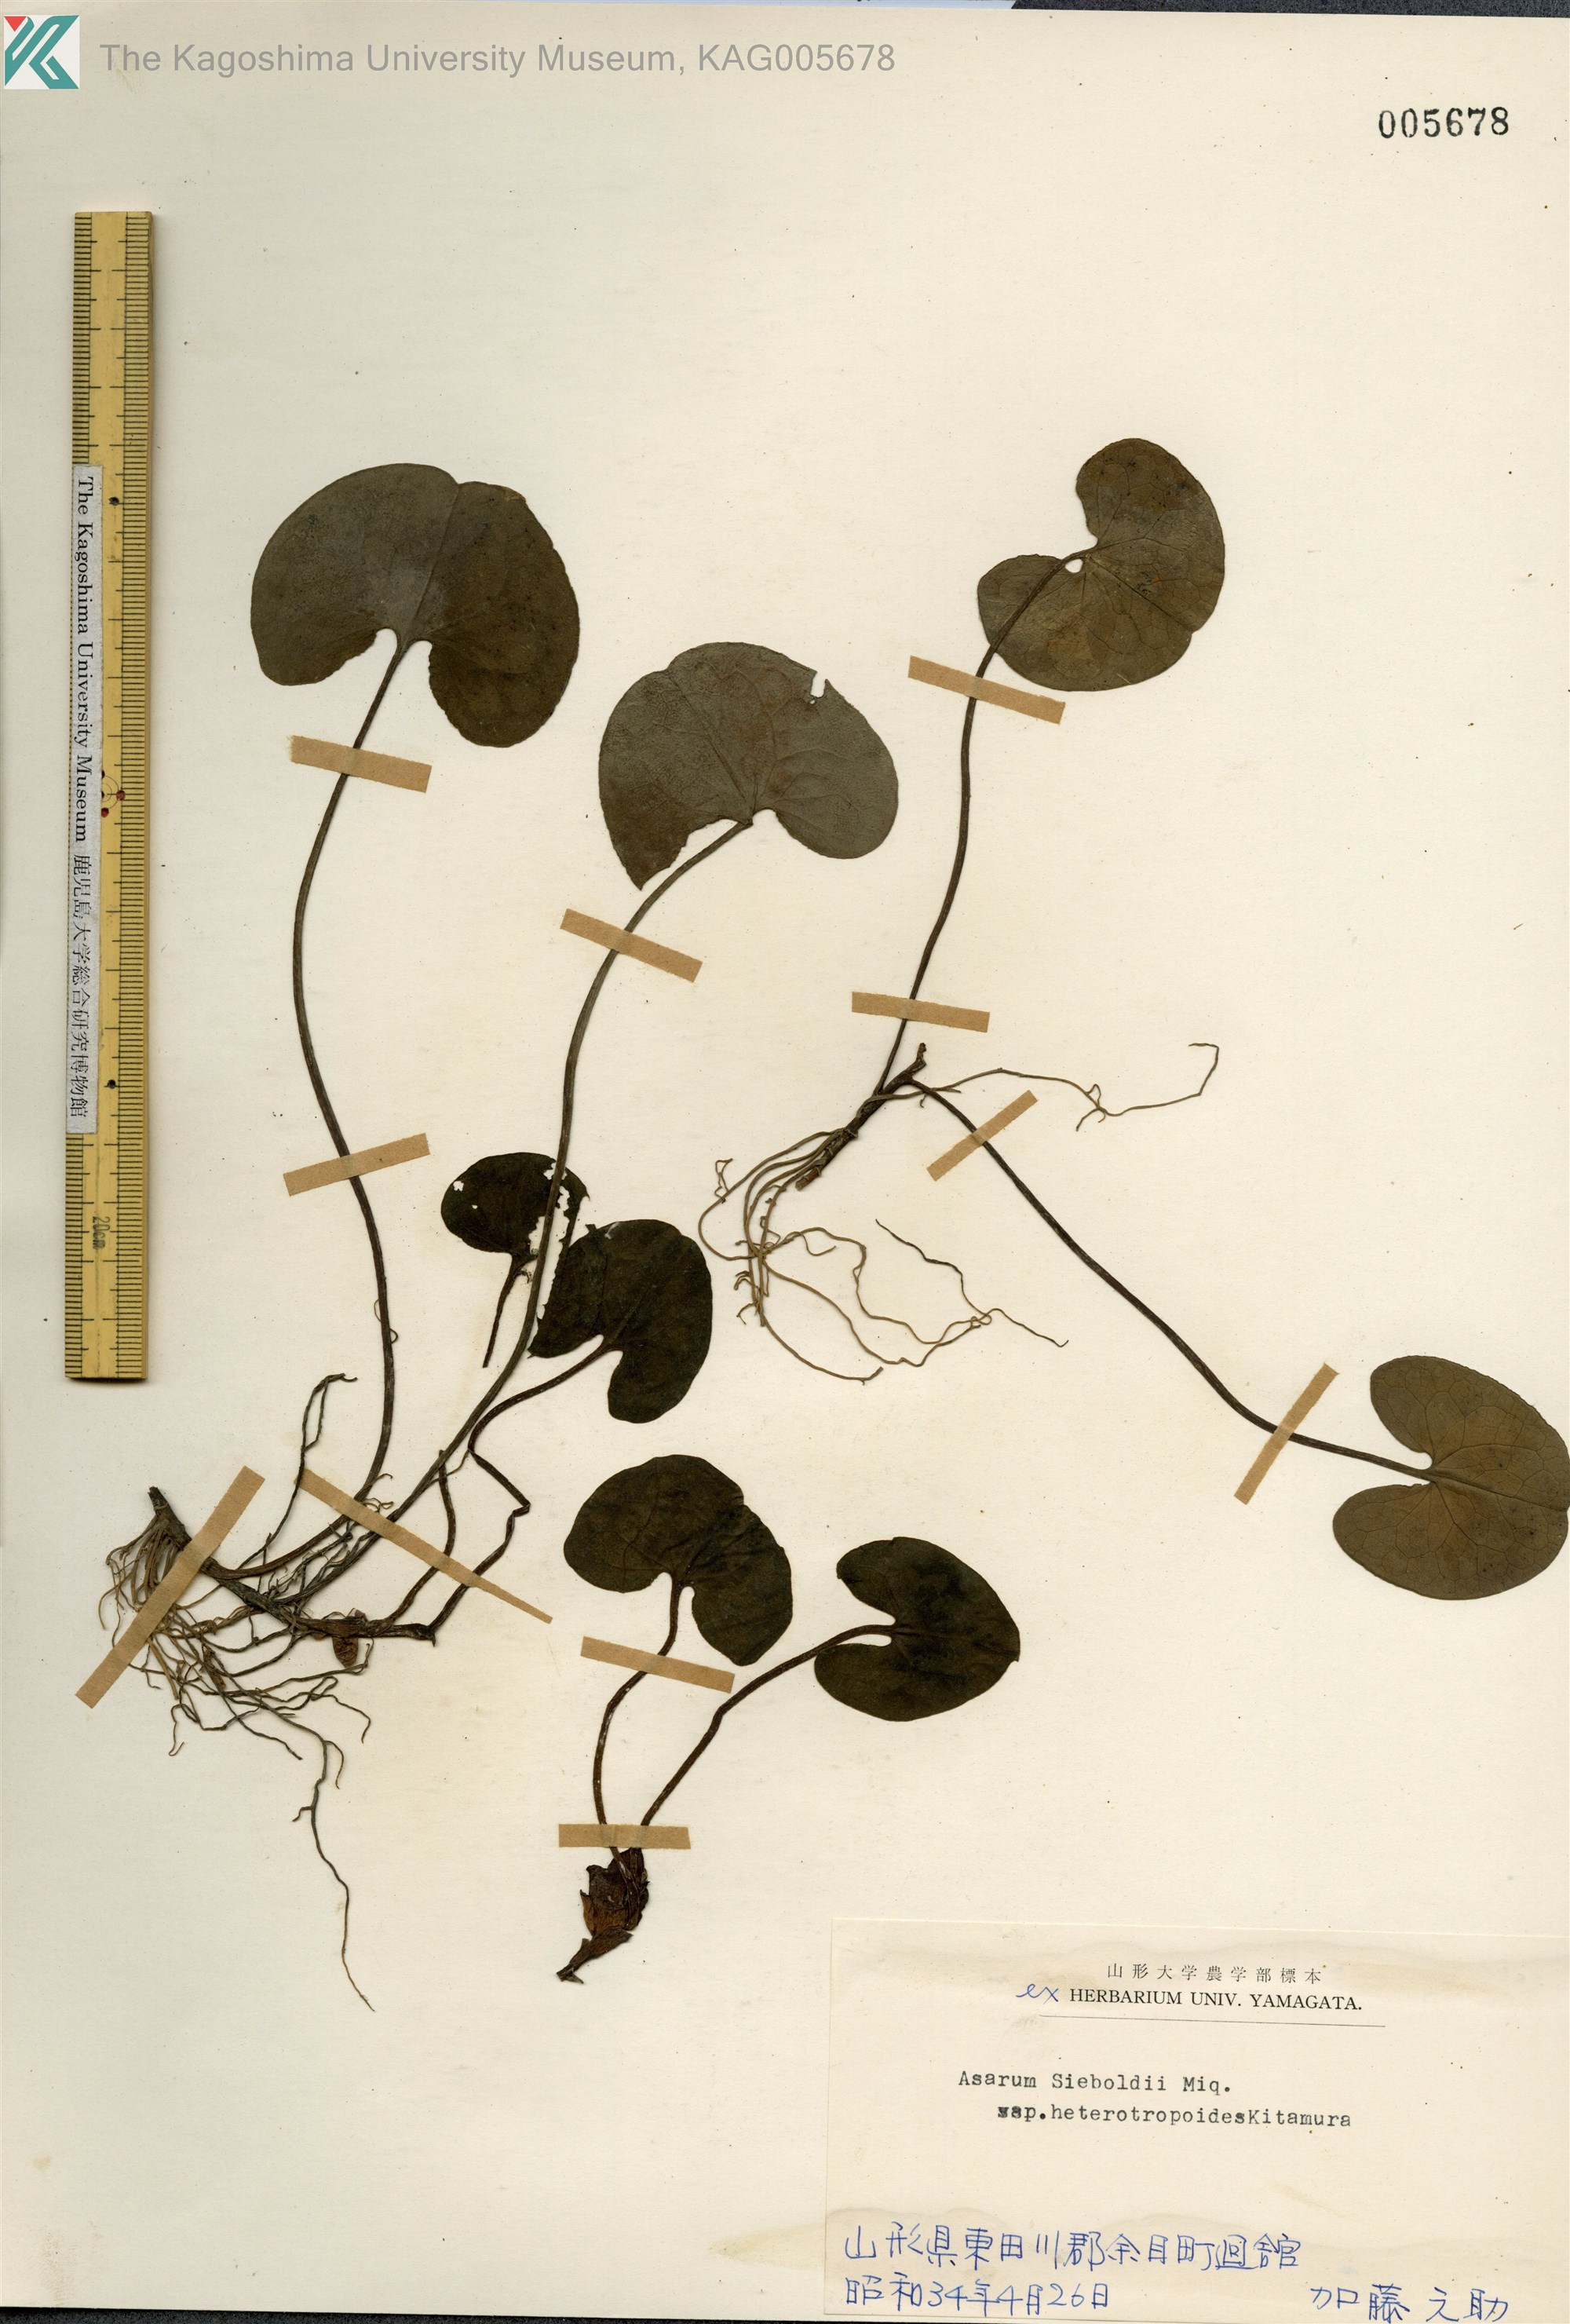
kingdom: Plantae
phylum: Tracheophyta
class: Magnoliopsida
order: Piperales
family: Aristolochiaceae
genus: Asarum
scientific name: Asarum sieboldii
